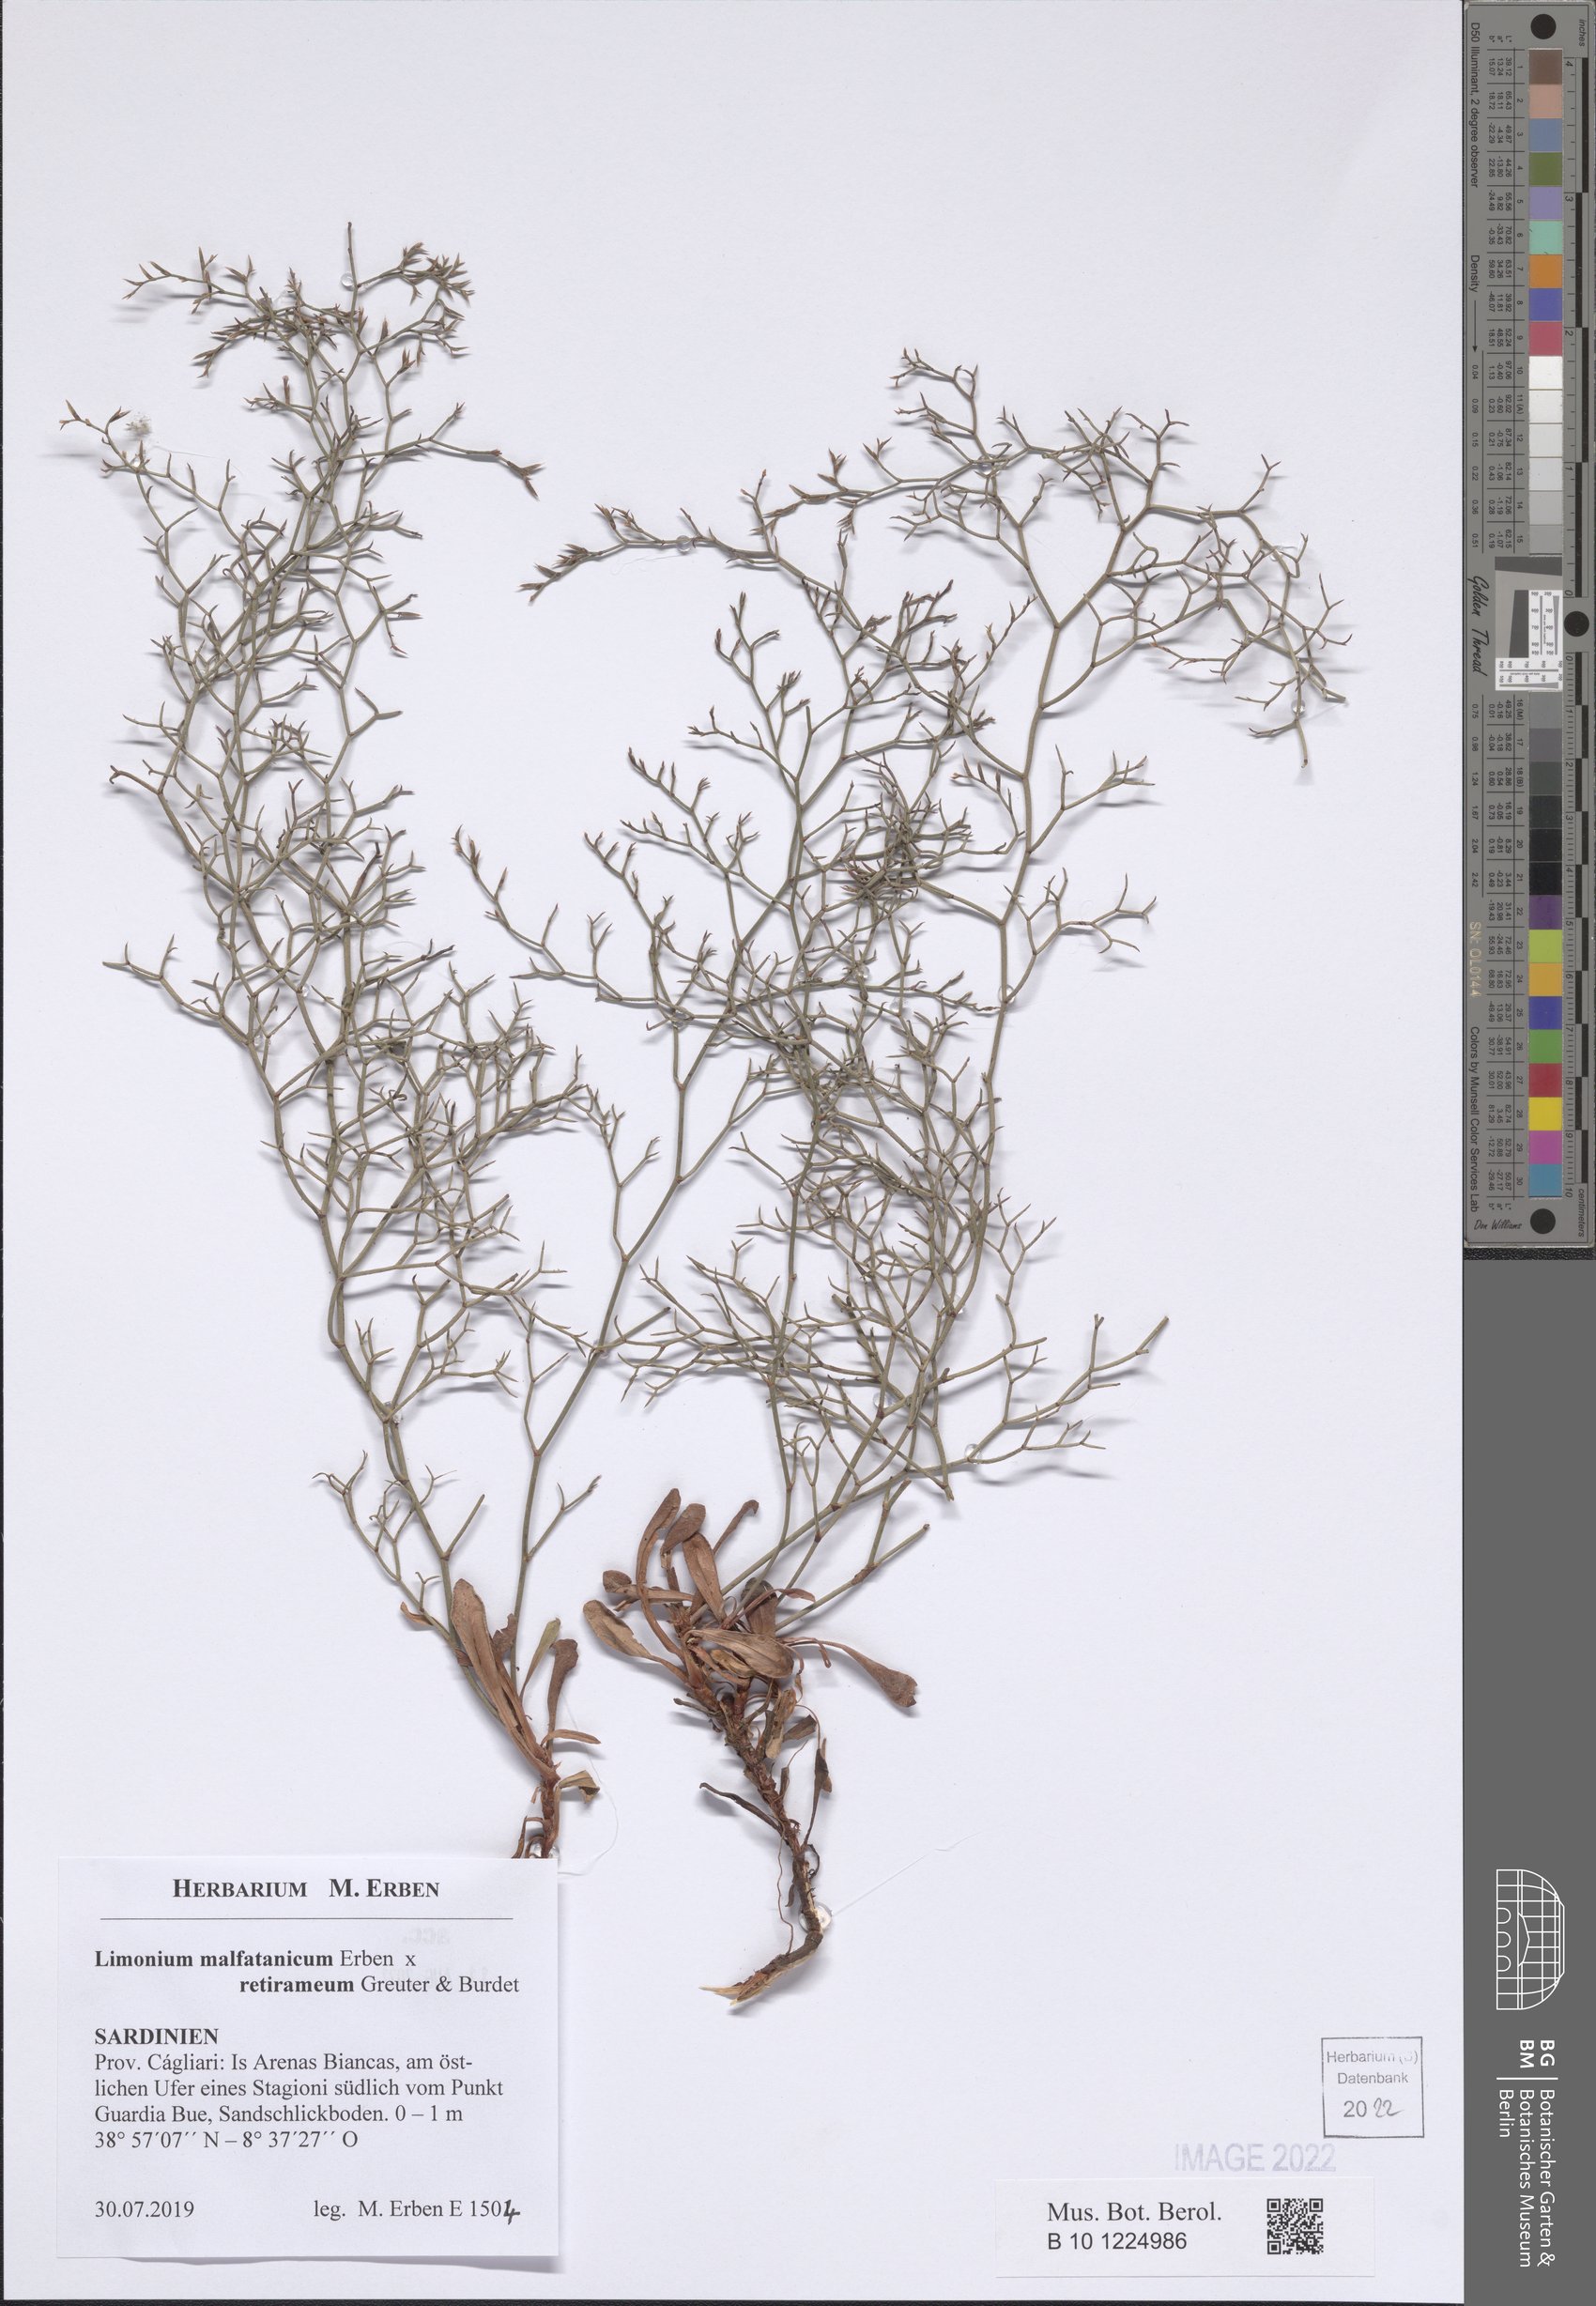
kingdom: Plantae
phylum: Tracheophyta
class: Magnoliopsida
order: Caryophyllales
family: Plumbaginaceae
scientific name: Plumbaginaceae
